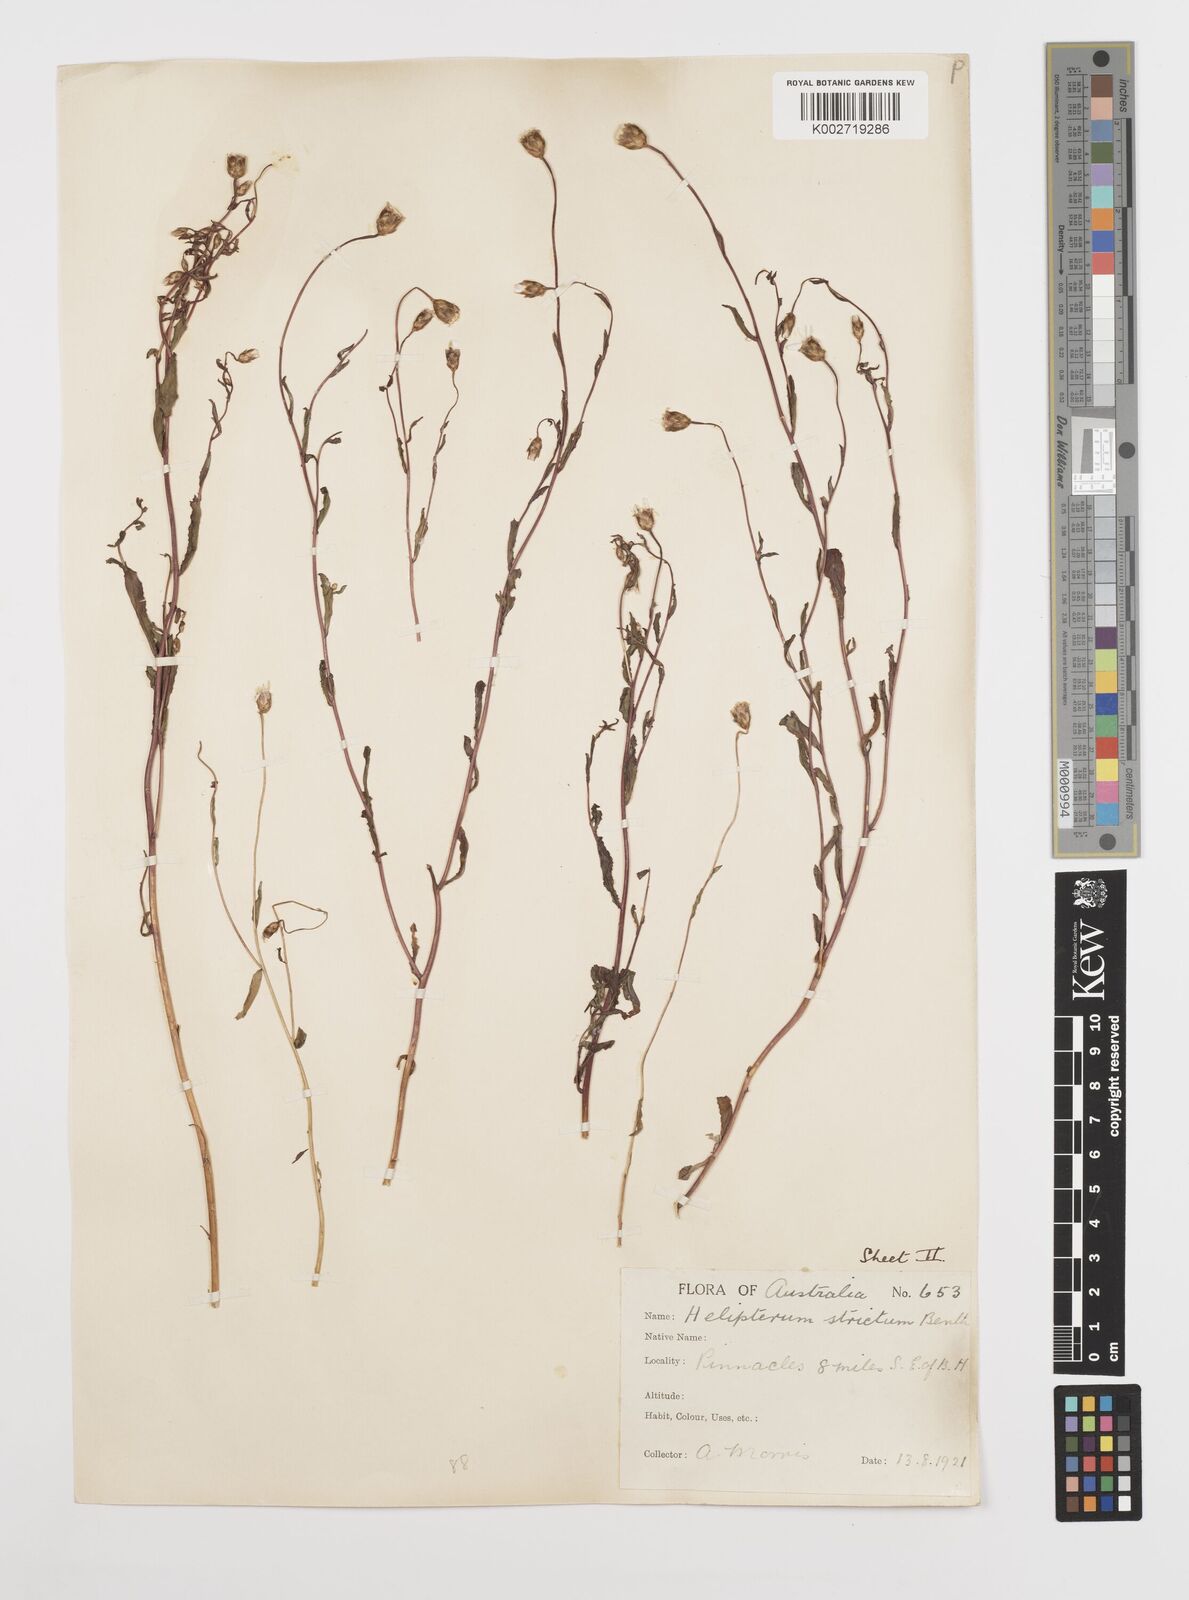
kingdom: Plantae
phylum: Tracheophyta
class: Magnoliopsida
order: Asterales
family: Asteraceae
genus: Rhodanthe
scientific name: Rhodanthe stricta
